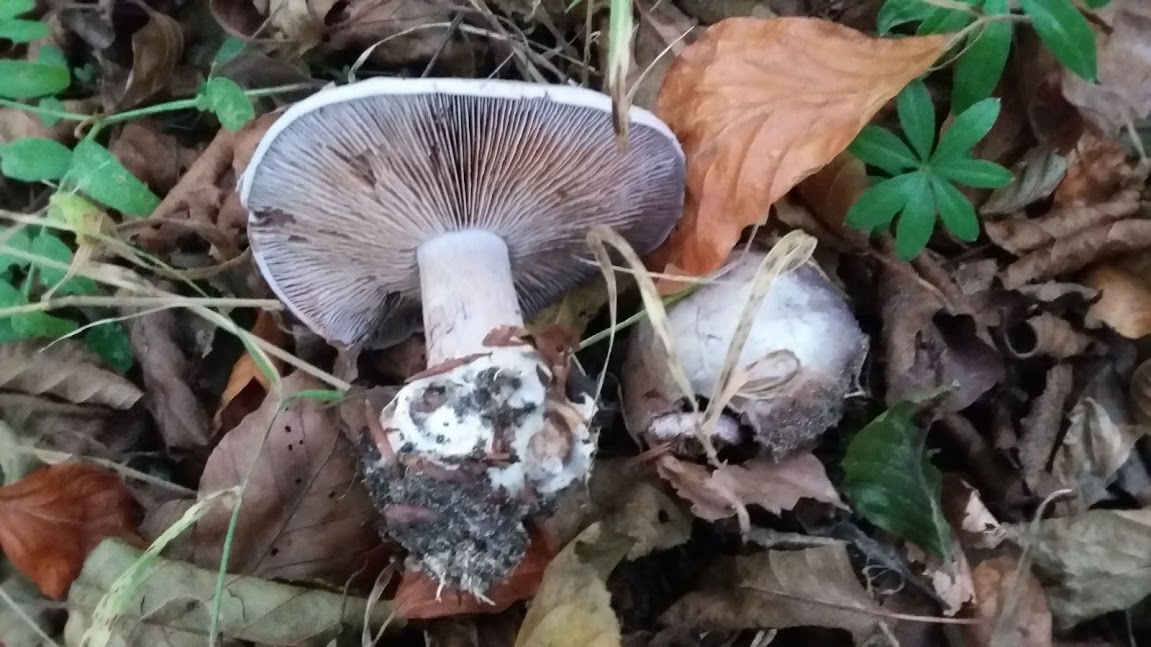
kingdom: Fungi
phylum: Basidiomycota
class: Agaricomycetes
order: Agaricales
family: Cortinariaceae
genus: Cortinarius
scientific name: Cortinarius caerulescens
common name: blåkødet slørhat
